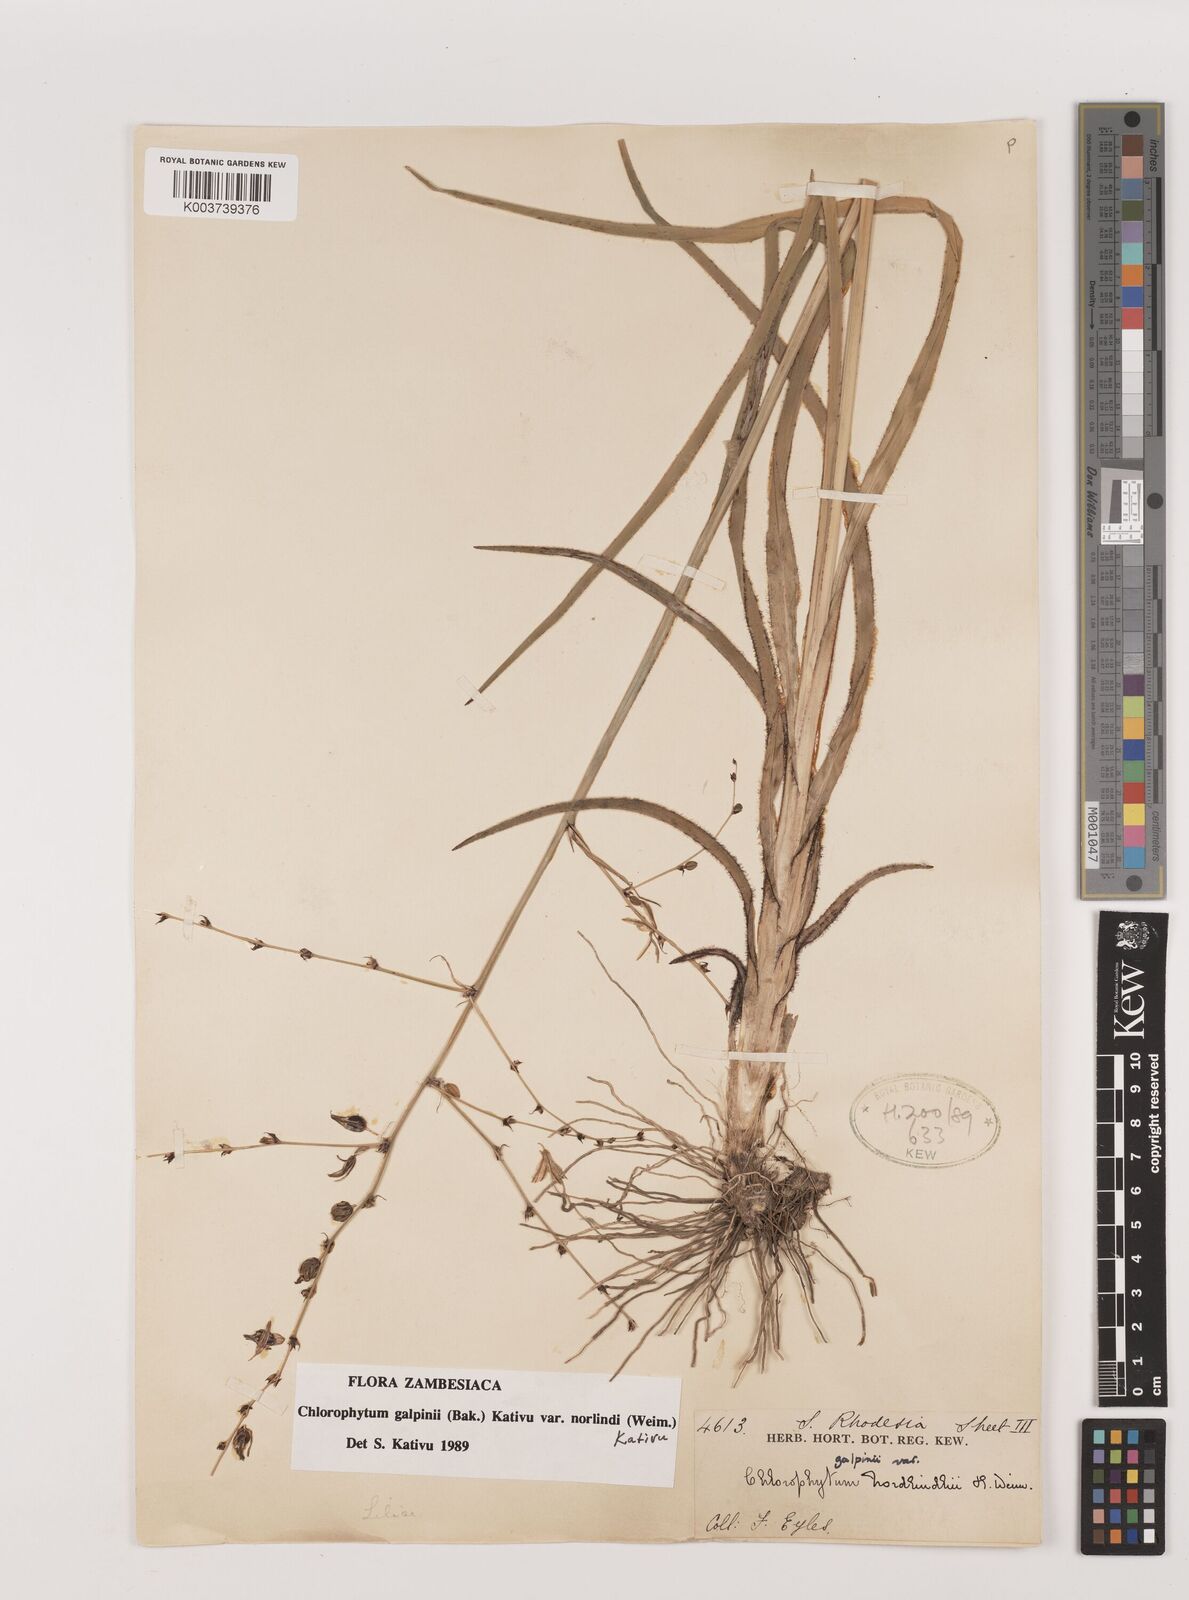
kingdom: Plantae
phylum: Tracheophyta
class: Liliopsida
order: Asparagales
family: Asparagaceae
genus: Chlorophytum
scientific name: Chlorophytum galpinii
